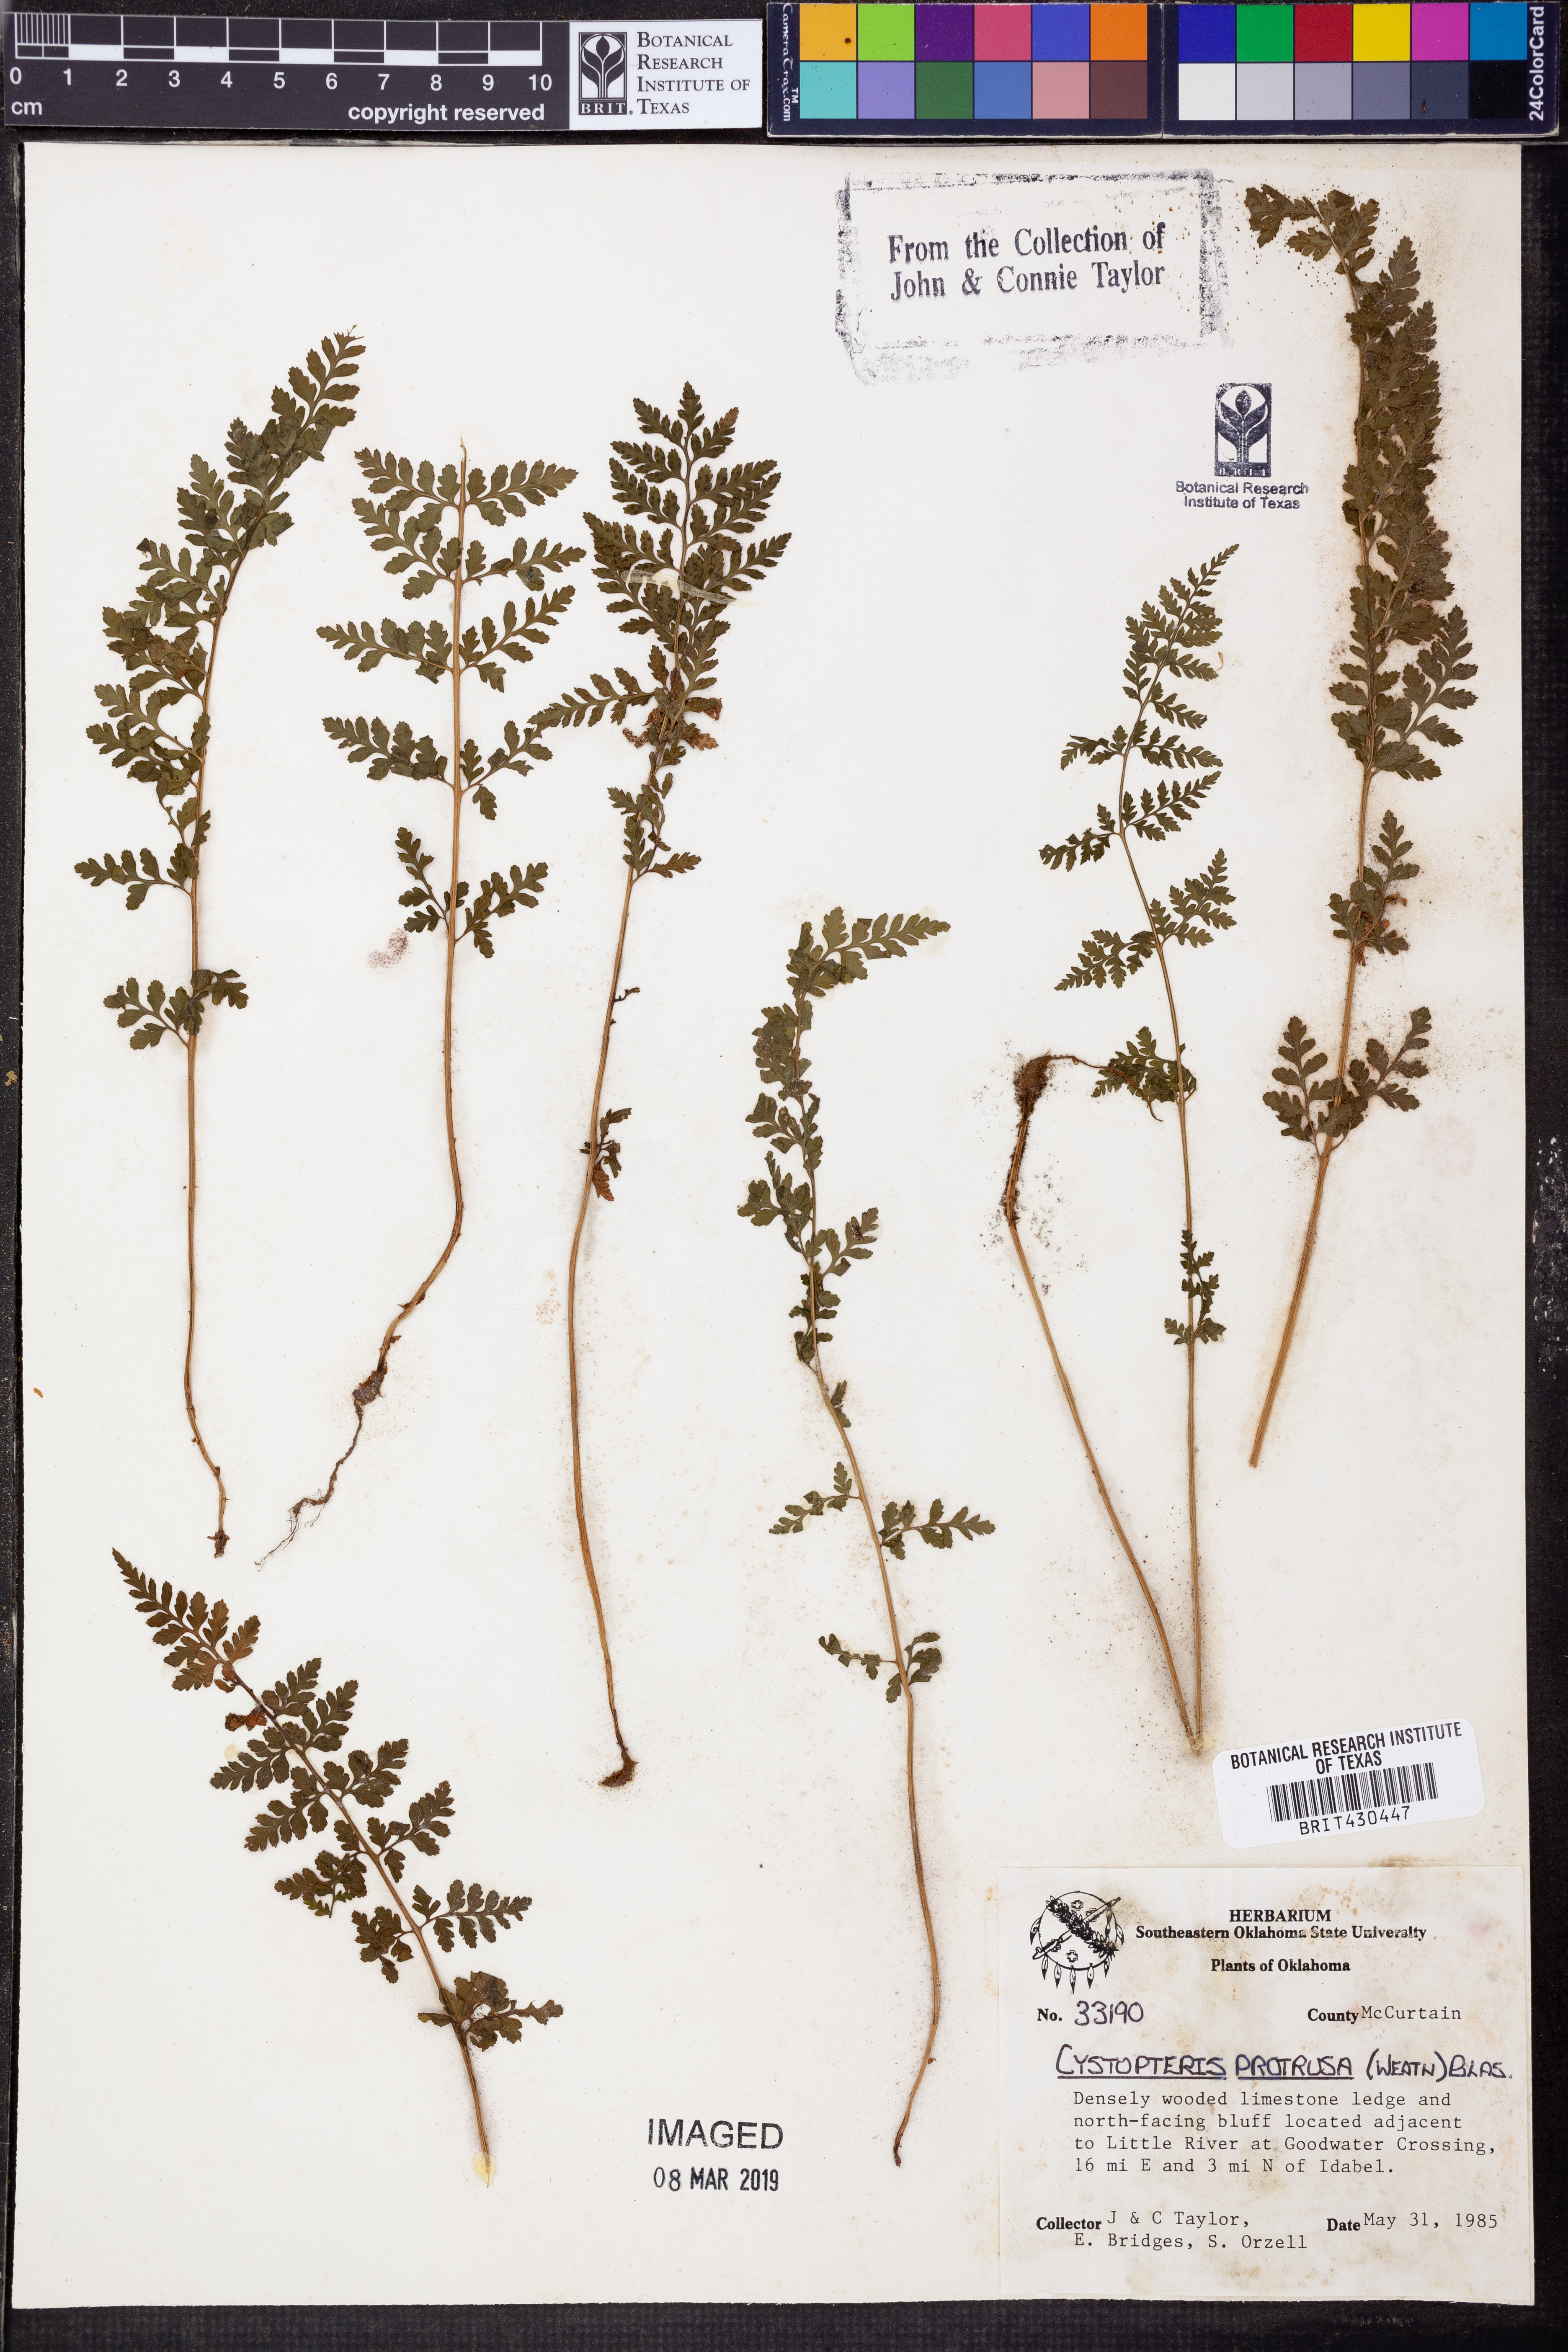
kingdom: Plantae
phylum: Tracheophyta
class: Polypodiopsida
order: Polypodiales
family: Cystopteridaceae
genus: Cystopteris
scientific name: Cystopteris protrusa
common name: Lowland brittle fern
